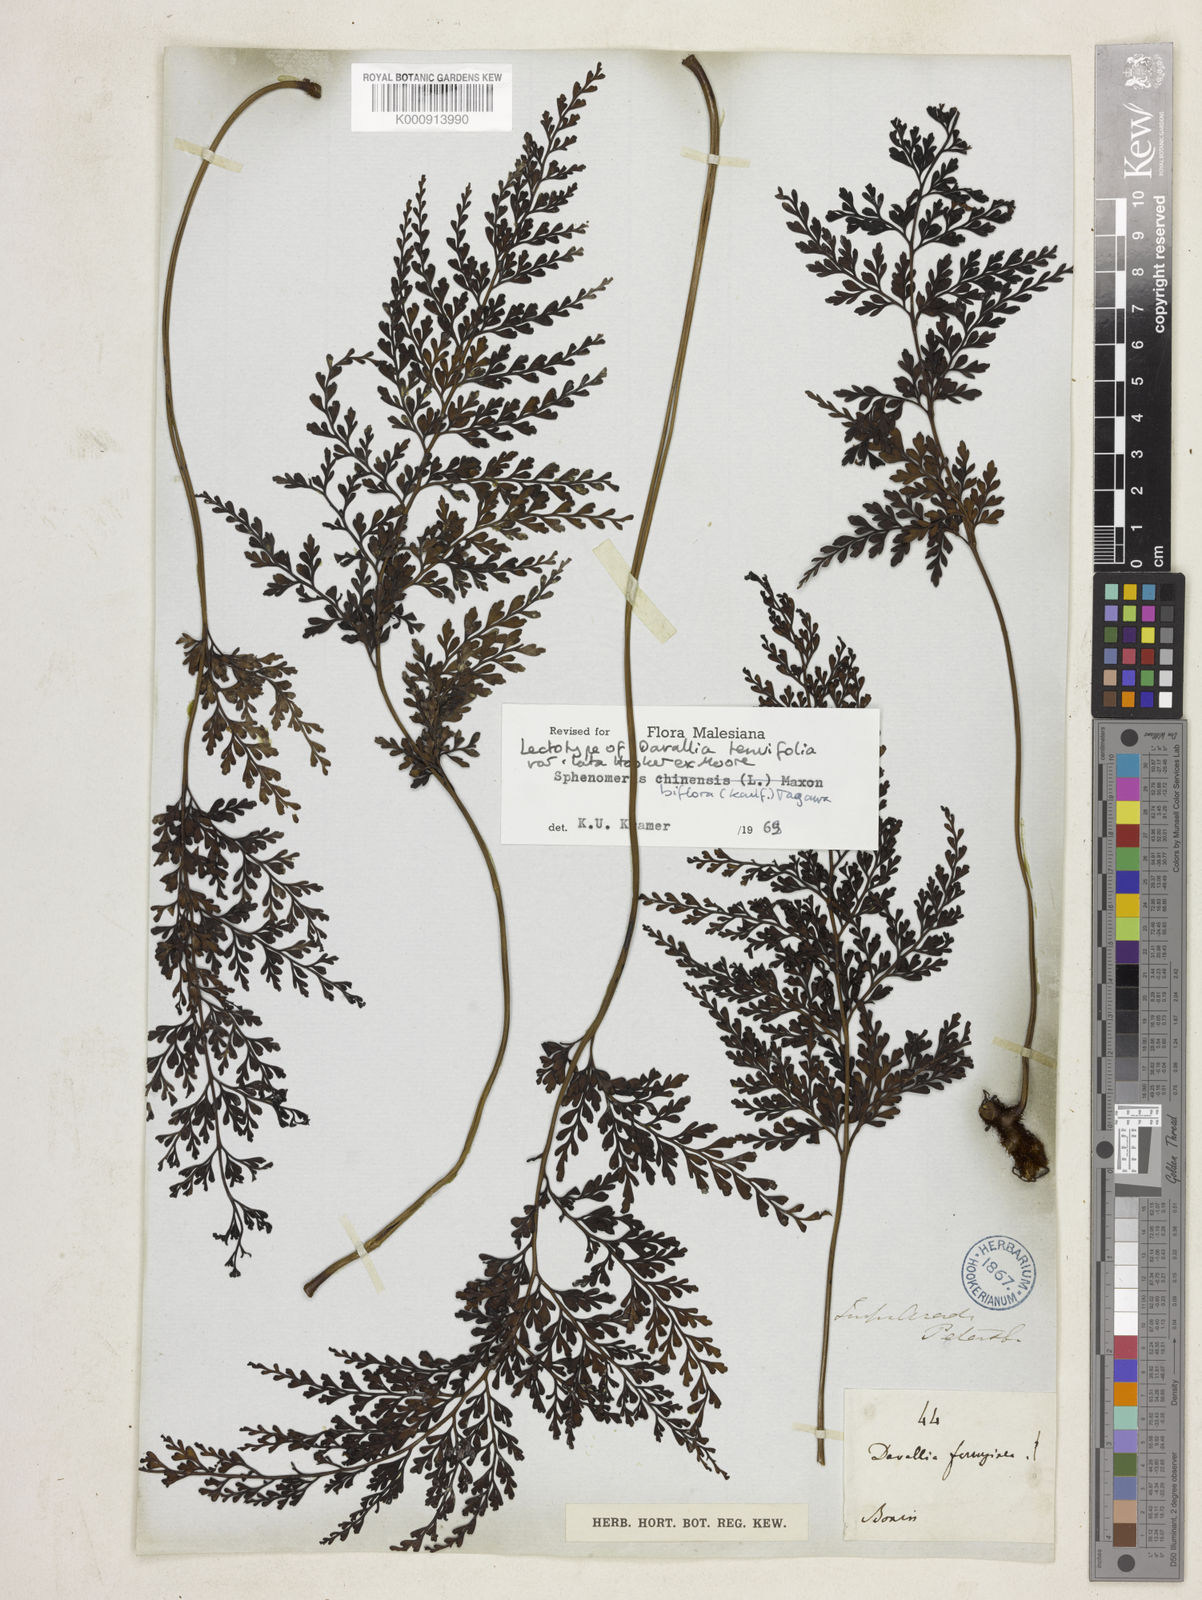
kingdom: Plantae
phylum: Tracheophyta
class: Polypodiopsida
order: Polypodiales
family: Lindsaeaceae
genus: Odontosoria
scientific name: Odontosoria biflora
